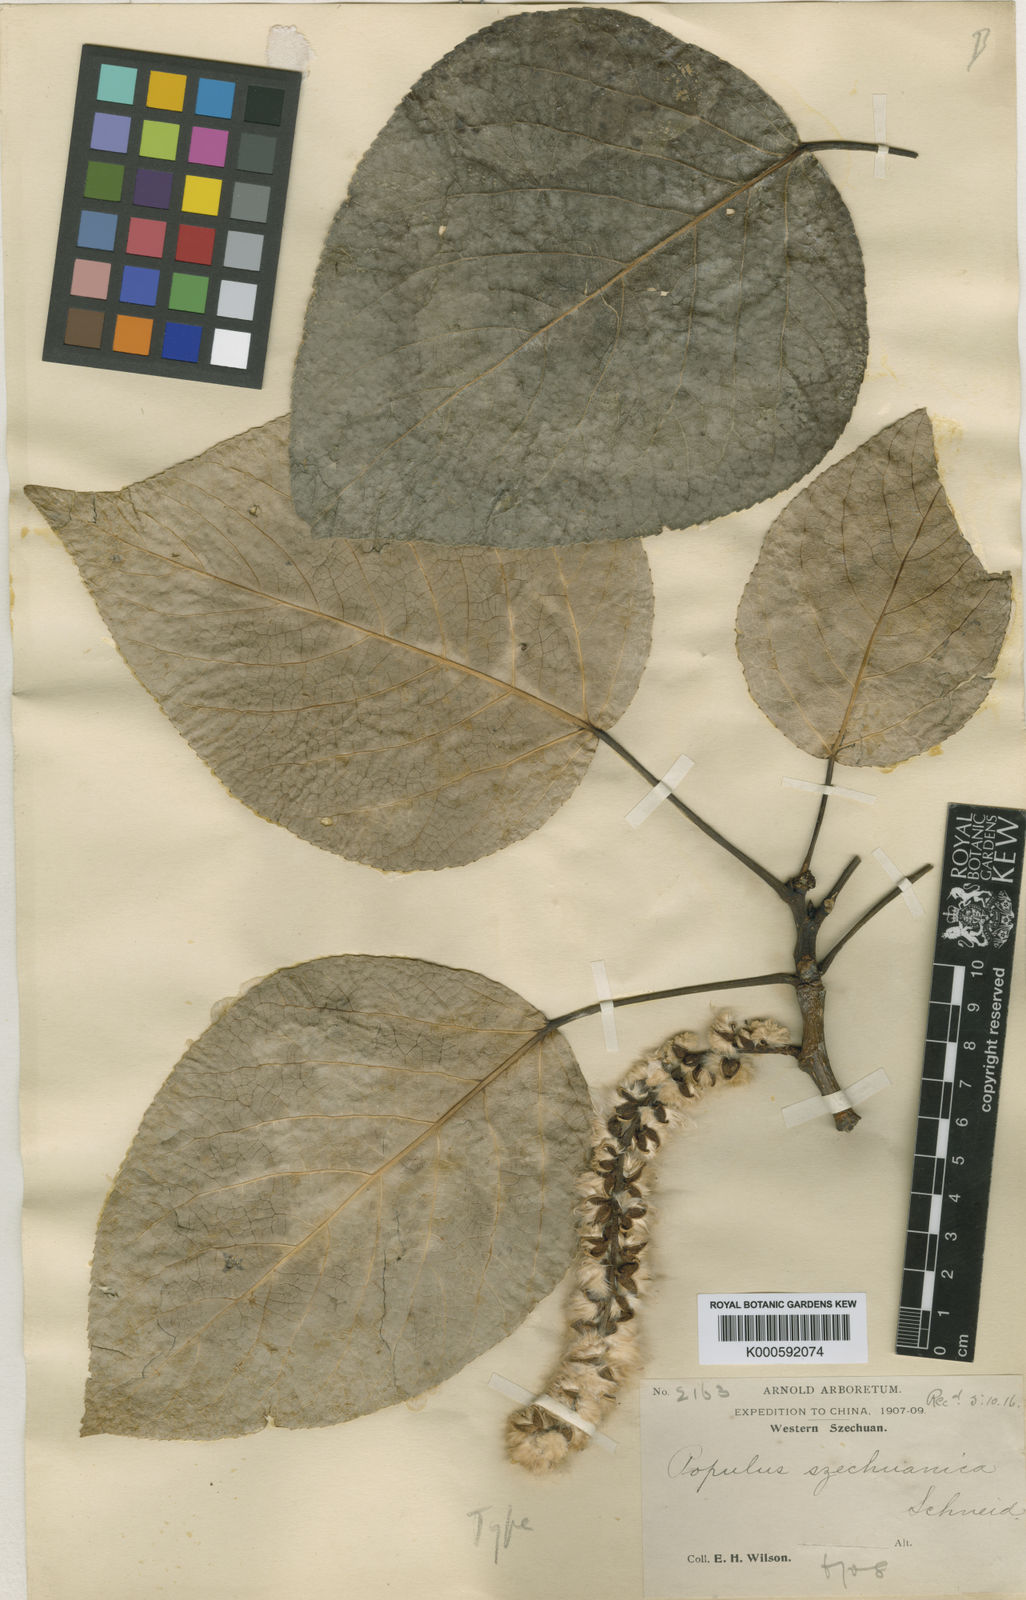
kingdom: Plantae
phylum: Tracheophyta
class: Magnoliopsida
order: Malpighiales
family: Salicaceae
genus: Populus
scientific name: Populus szechuanica
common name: Szechuan poplar
